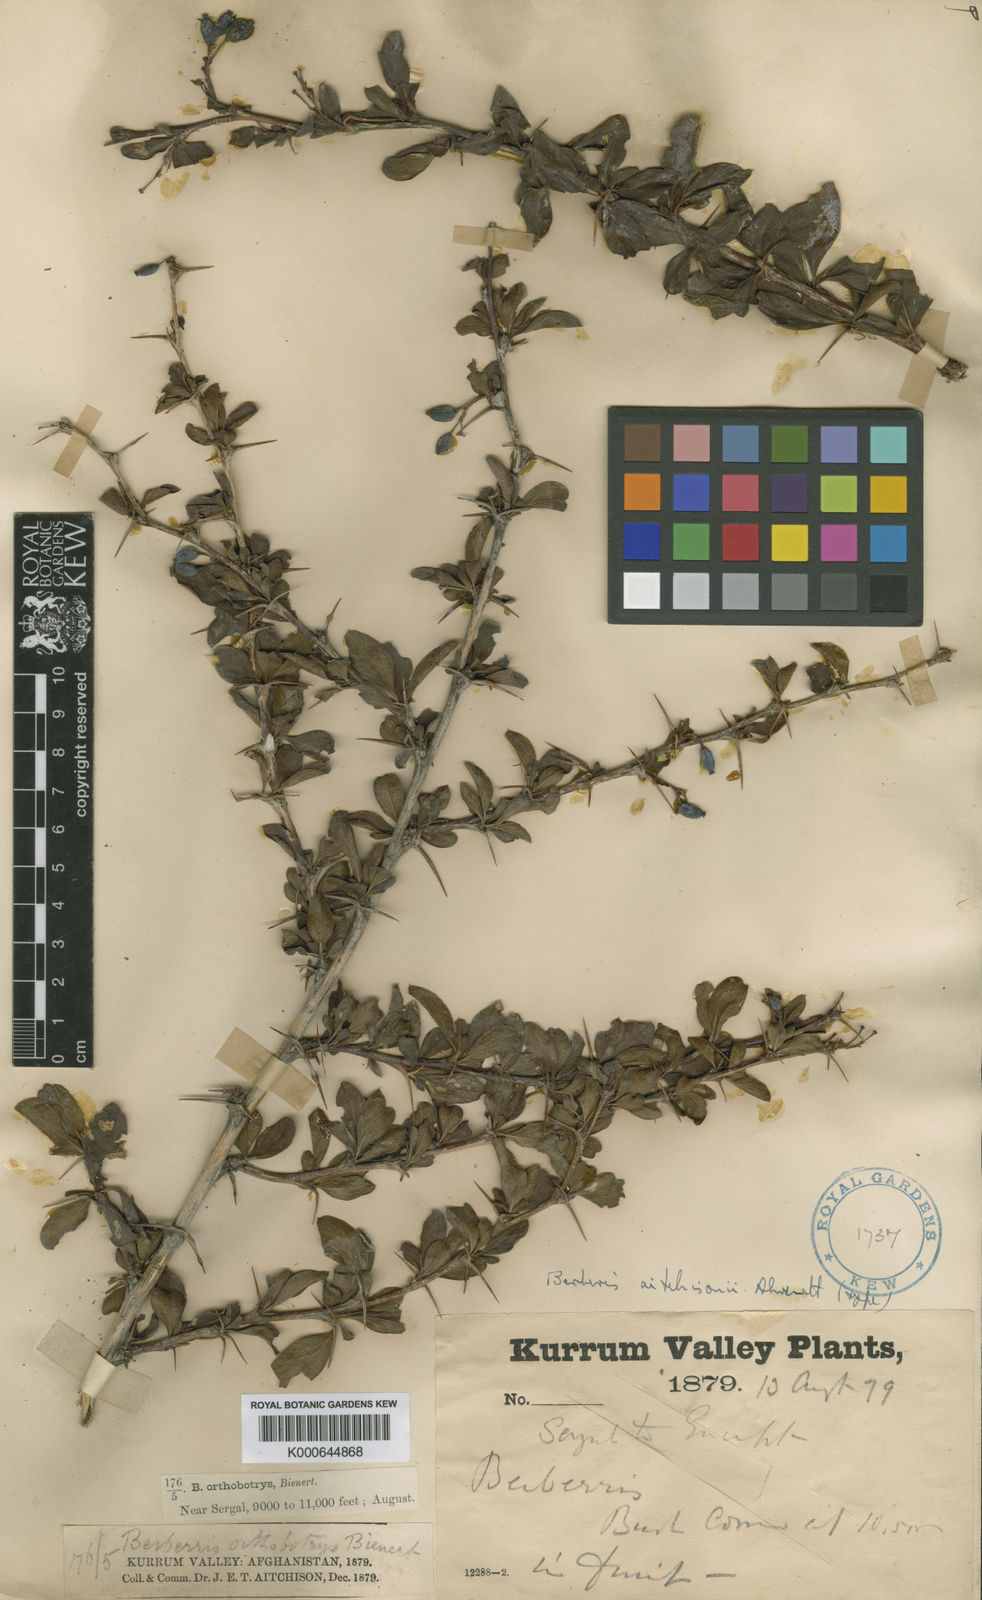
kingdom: Plantae
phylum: Tracheophyta
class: Magnoliopsida
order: Ranunculales
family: Berberidaceae
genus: Berberis
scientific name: Berberis calliobotrys
